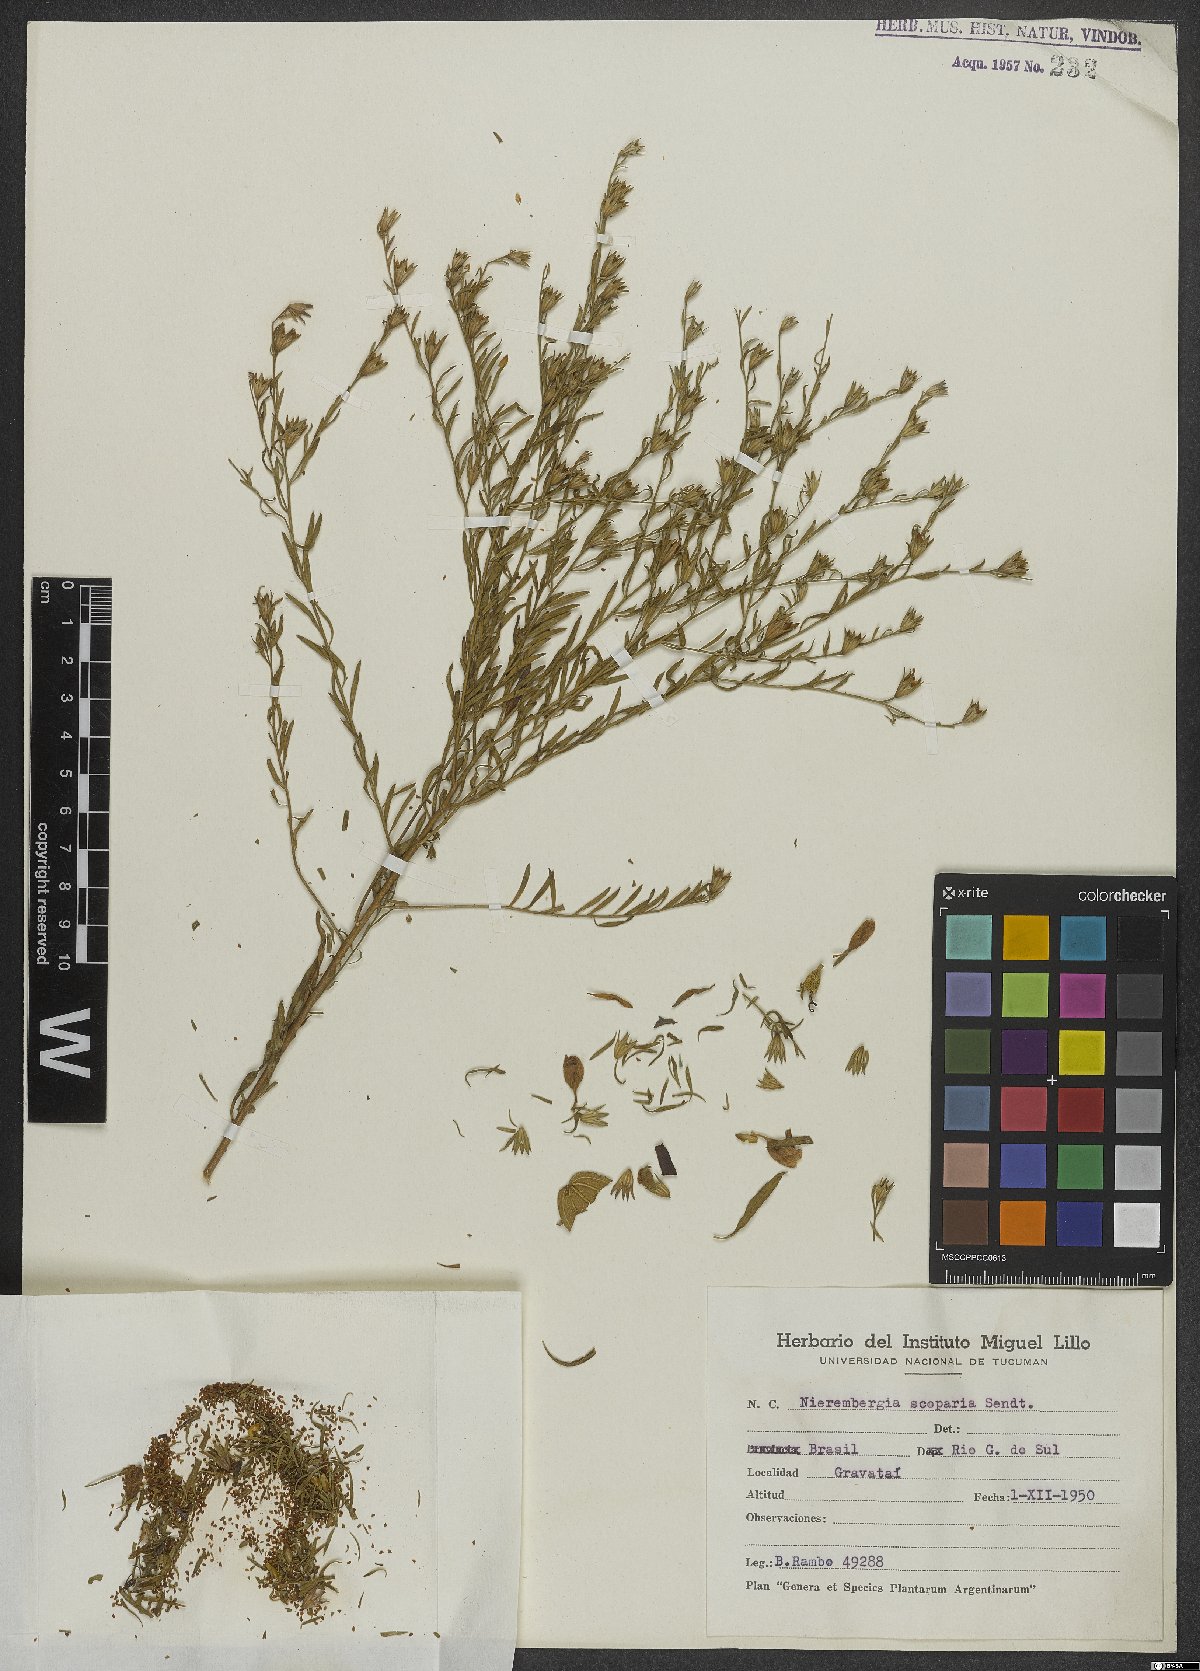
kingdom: Plantae
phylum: Tracheophyta
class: Magnoliopsida
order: Solanales
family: Solanaceae
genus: Nierembergia
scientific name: Nierembergia scoparia
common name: Broom cupflower
